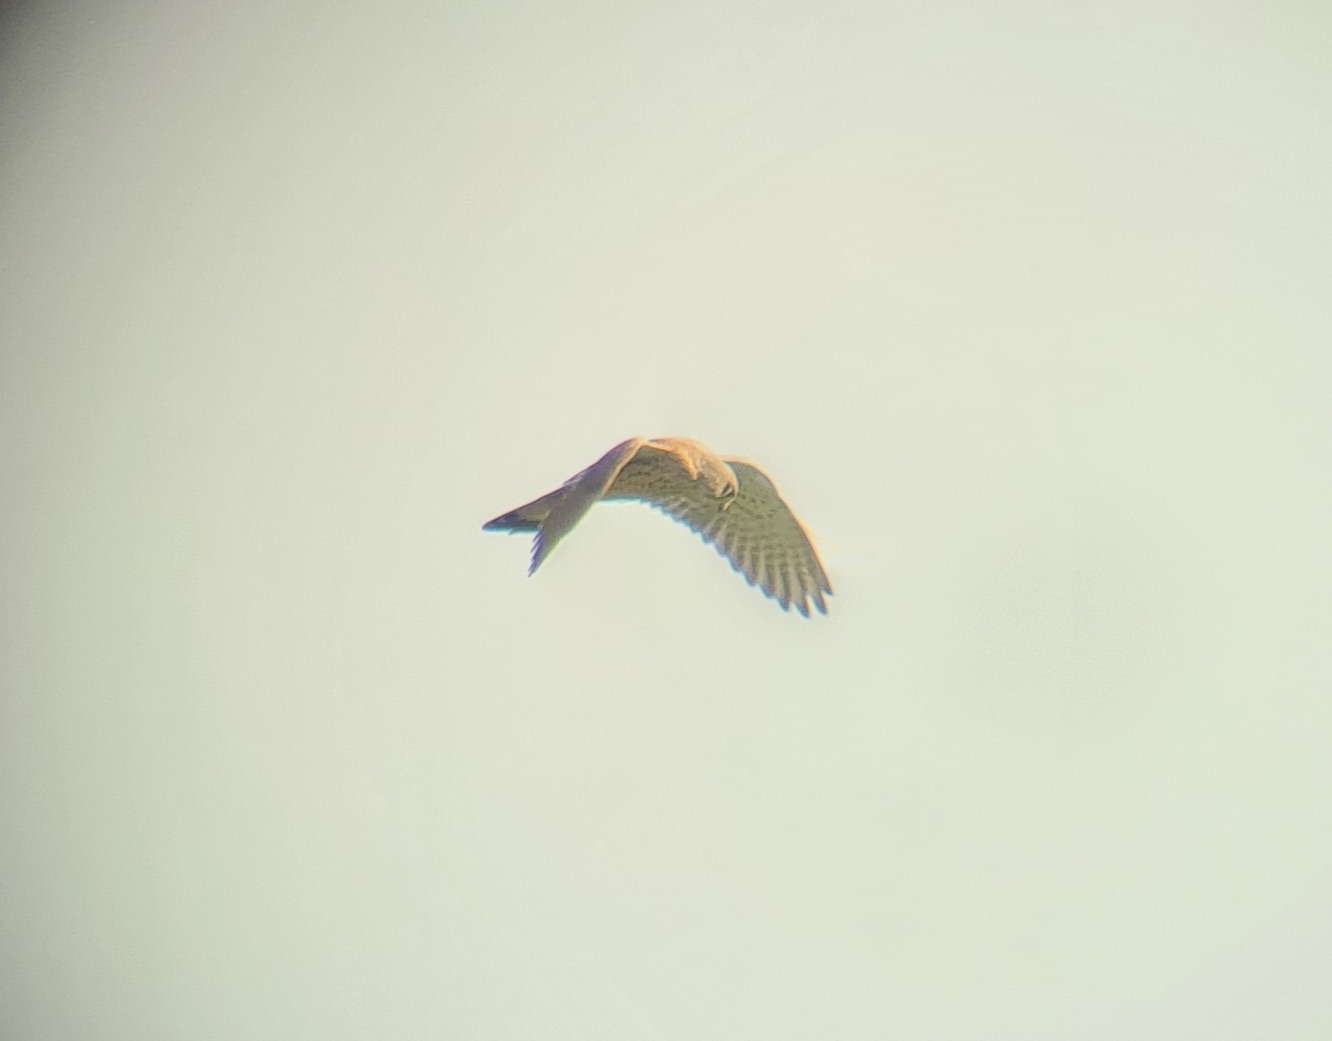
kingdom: Animalia
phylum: Chordata
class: Aves
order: Falconiformes
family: Falconidae
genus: Falco
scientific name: Falco tinnunculus
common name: Tårnfalk
